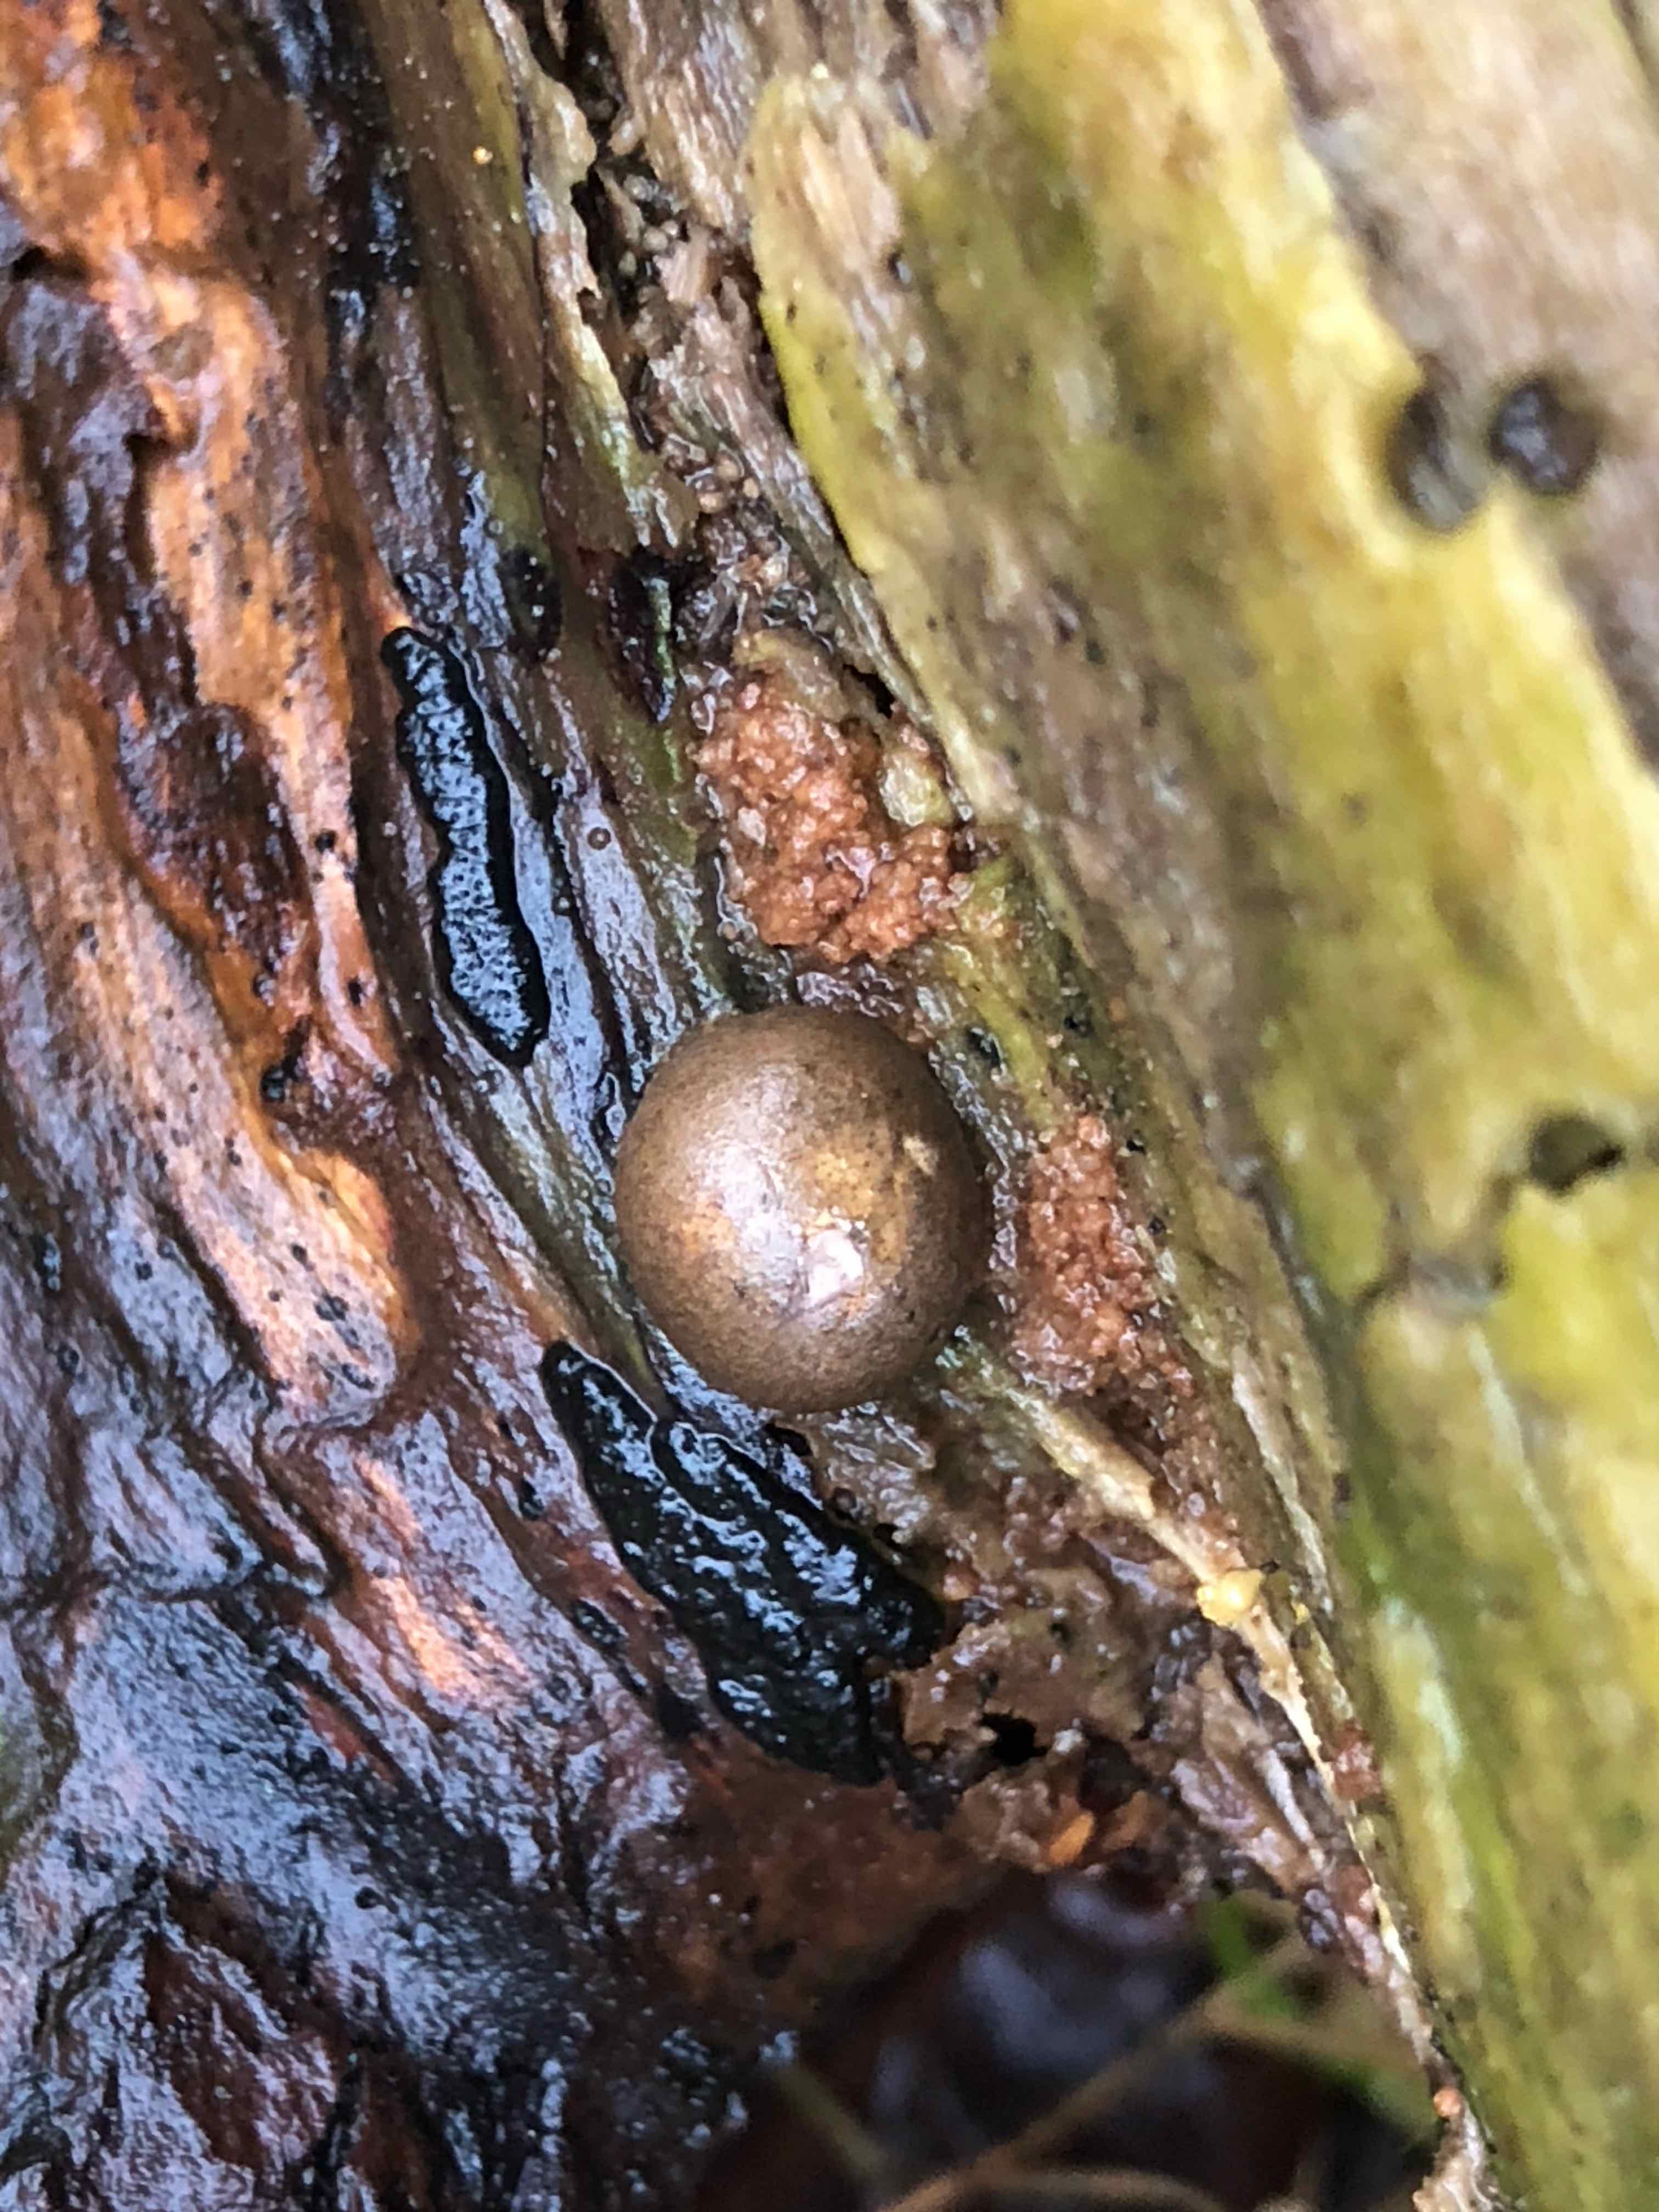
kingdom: Protozoa
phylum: Mycetozoa
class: Myxomycetes
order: Cribrariales
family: Tubiferaceae
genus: Lycogala
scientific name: Lycogala epidendrum
